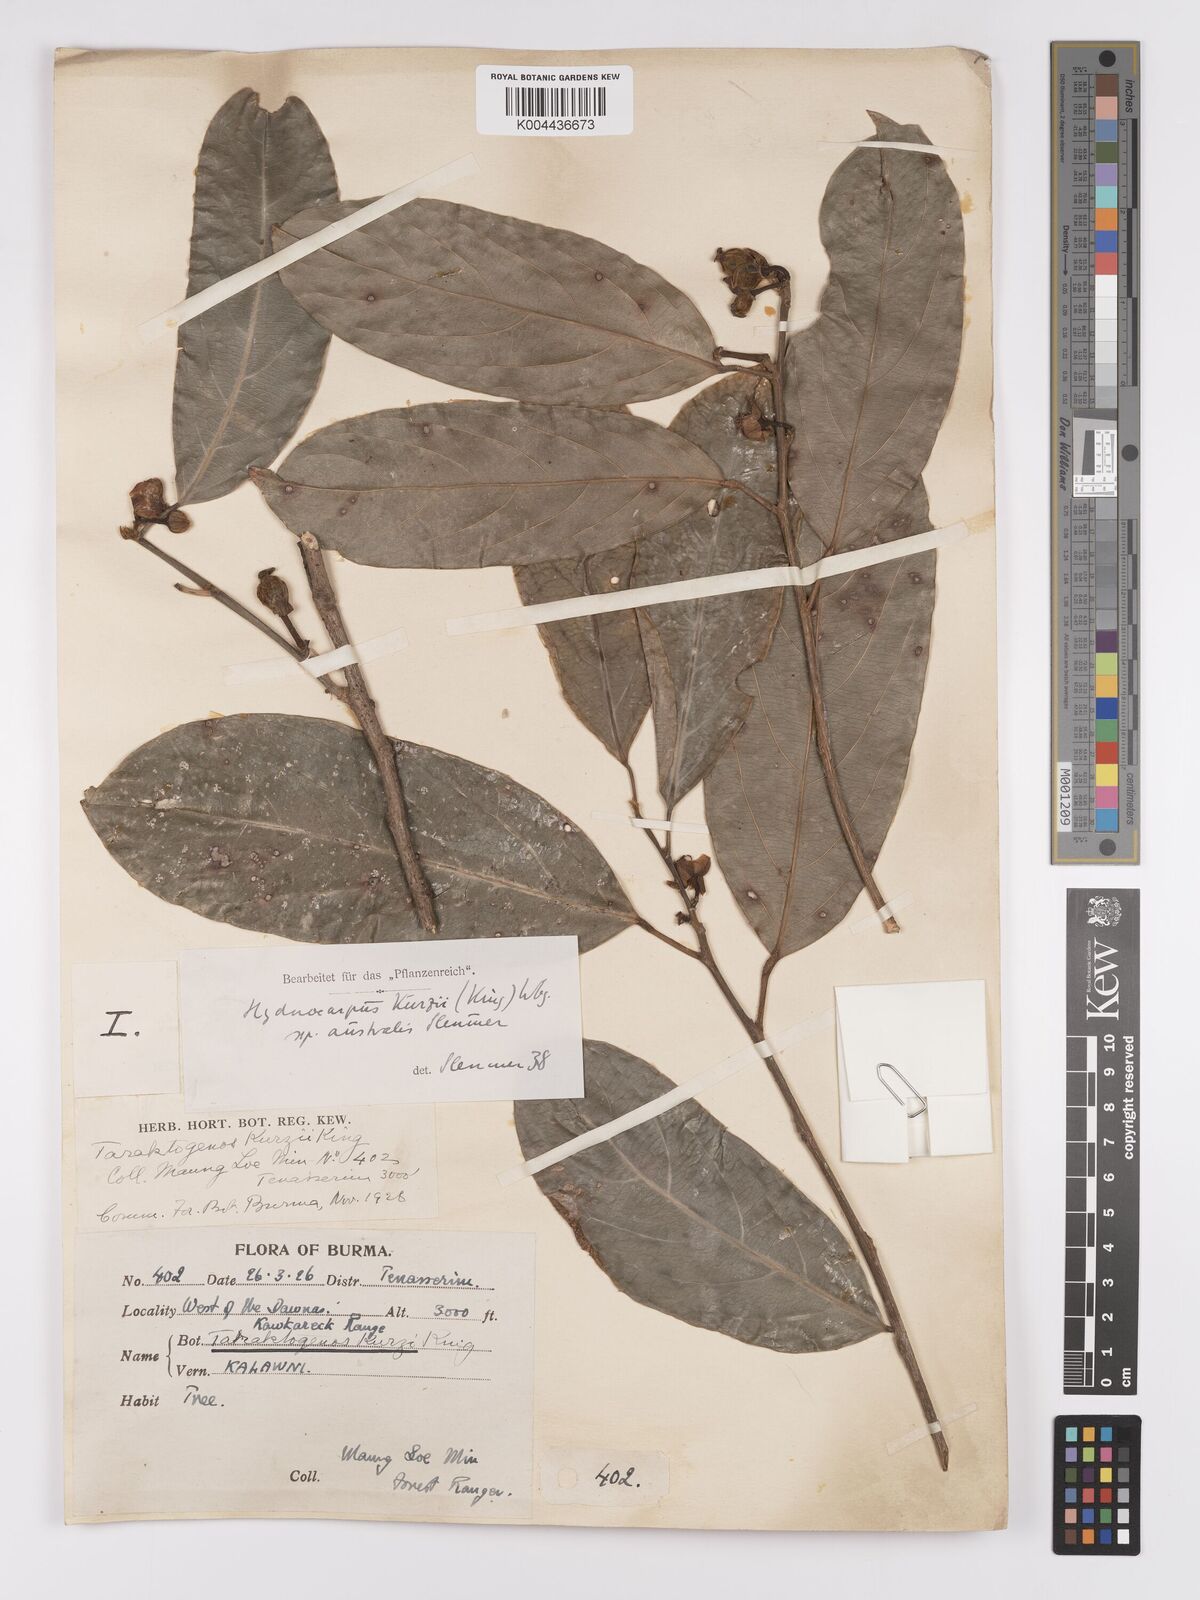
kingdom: Plantae
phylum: Tracheophyta
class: Magnoliopsida
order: Malpighiales
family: Achariaceae
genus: Hydnocarpus
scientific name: Hydnocarpus kurzii
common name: Chaulmoogra
